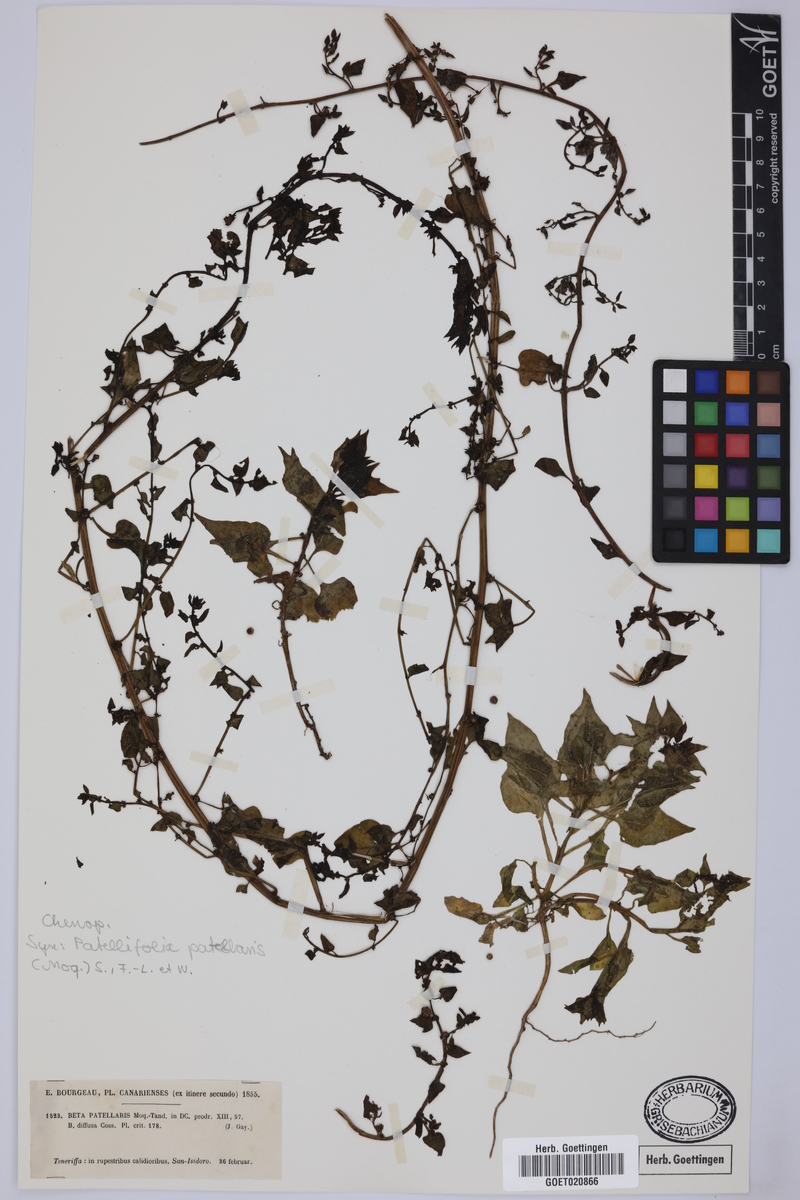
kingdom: Plantae
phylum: Tracheophyta
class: Magnoliopsida
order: Caryophyllales
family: Amaranthaceae
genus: Patellifolia
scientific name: Patellifolia procumbens
